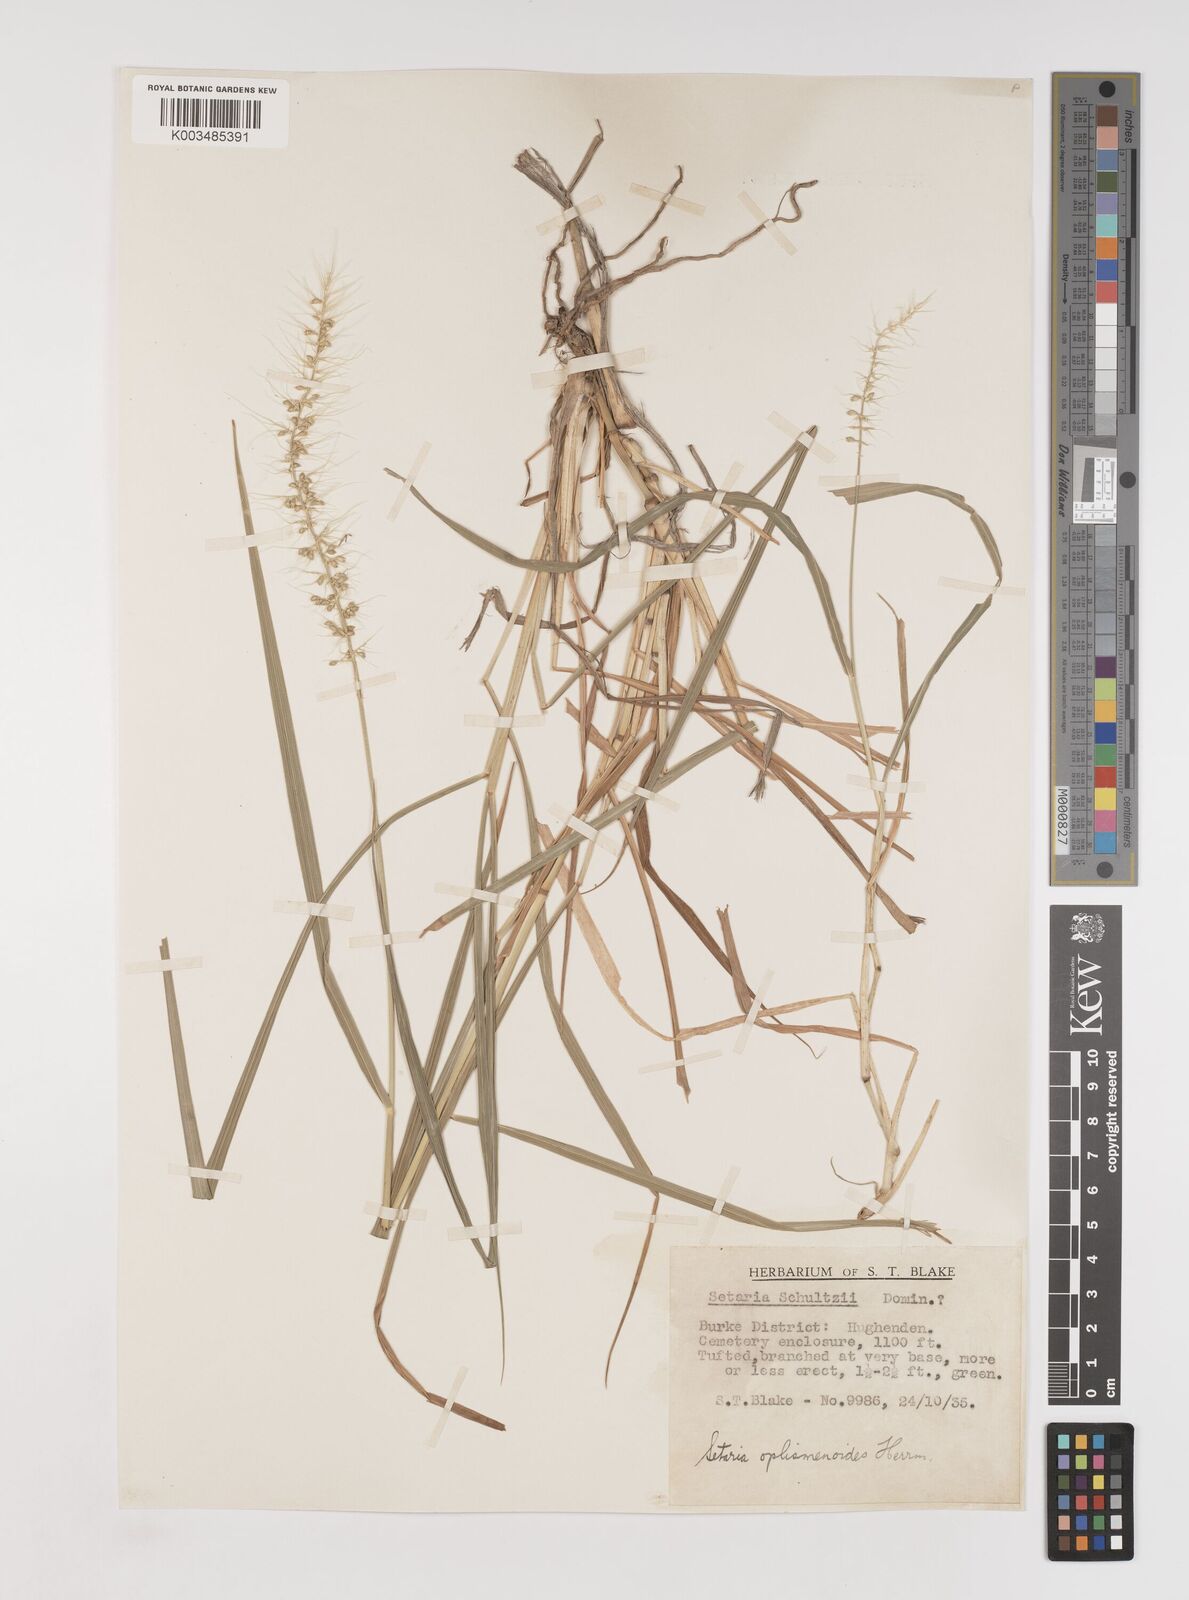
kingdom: Plantae
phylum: Tracheophyta
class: Liliopsida
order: Poales
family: Poaceae
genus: Setaria
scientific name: Setaria oplismenoides
